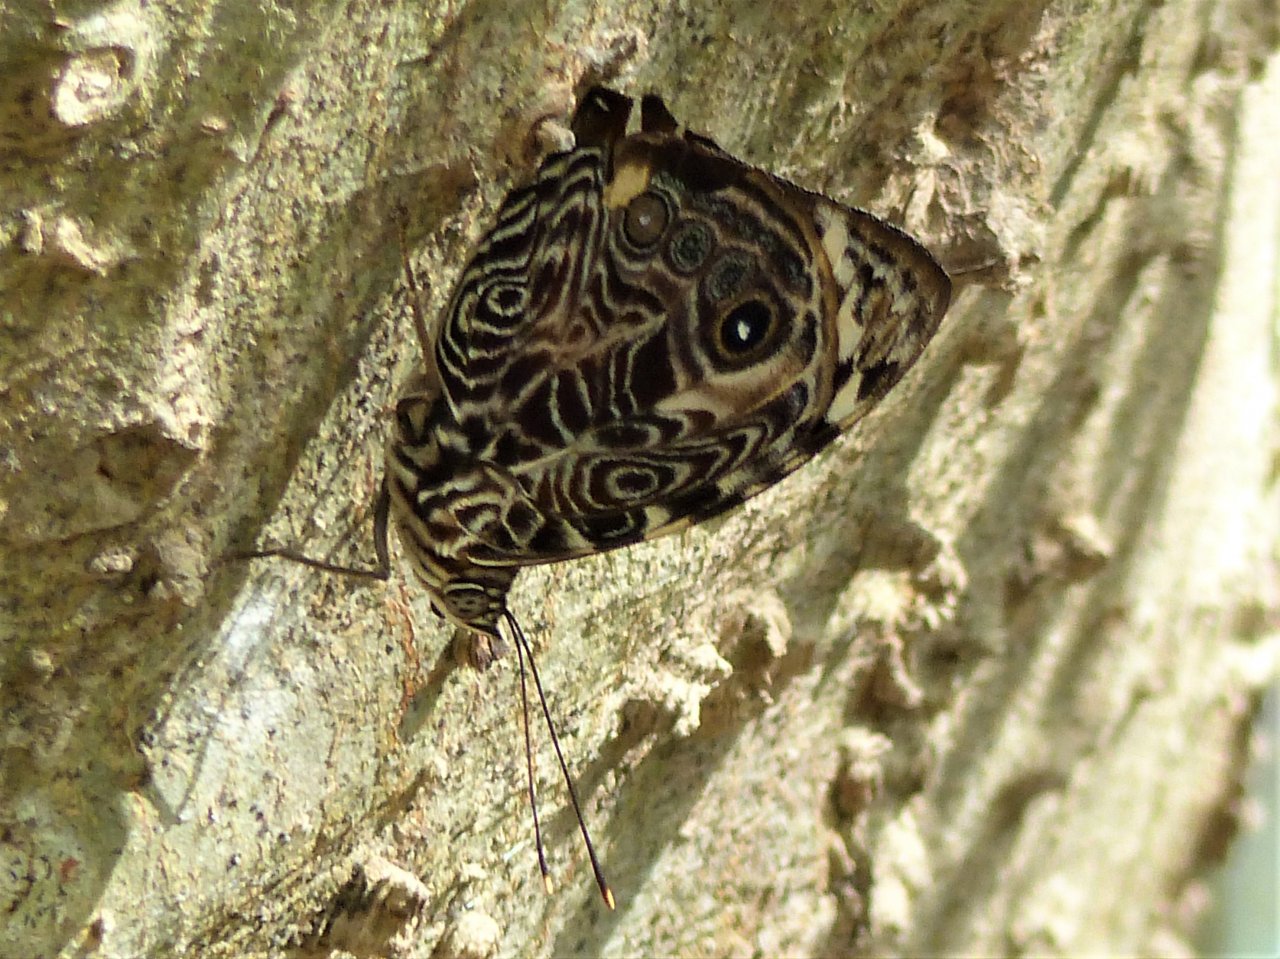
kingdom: Animalia
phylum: Arthropoda
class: Insecta
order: Lepidoptera
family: Nymphalidae
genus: Smyrna
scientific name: Smyrna blomfildia
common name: Blomfild's Beauty
